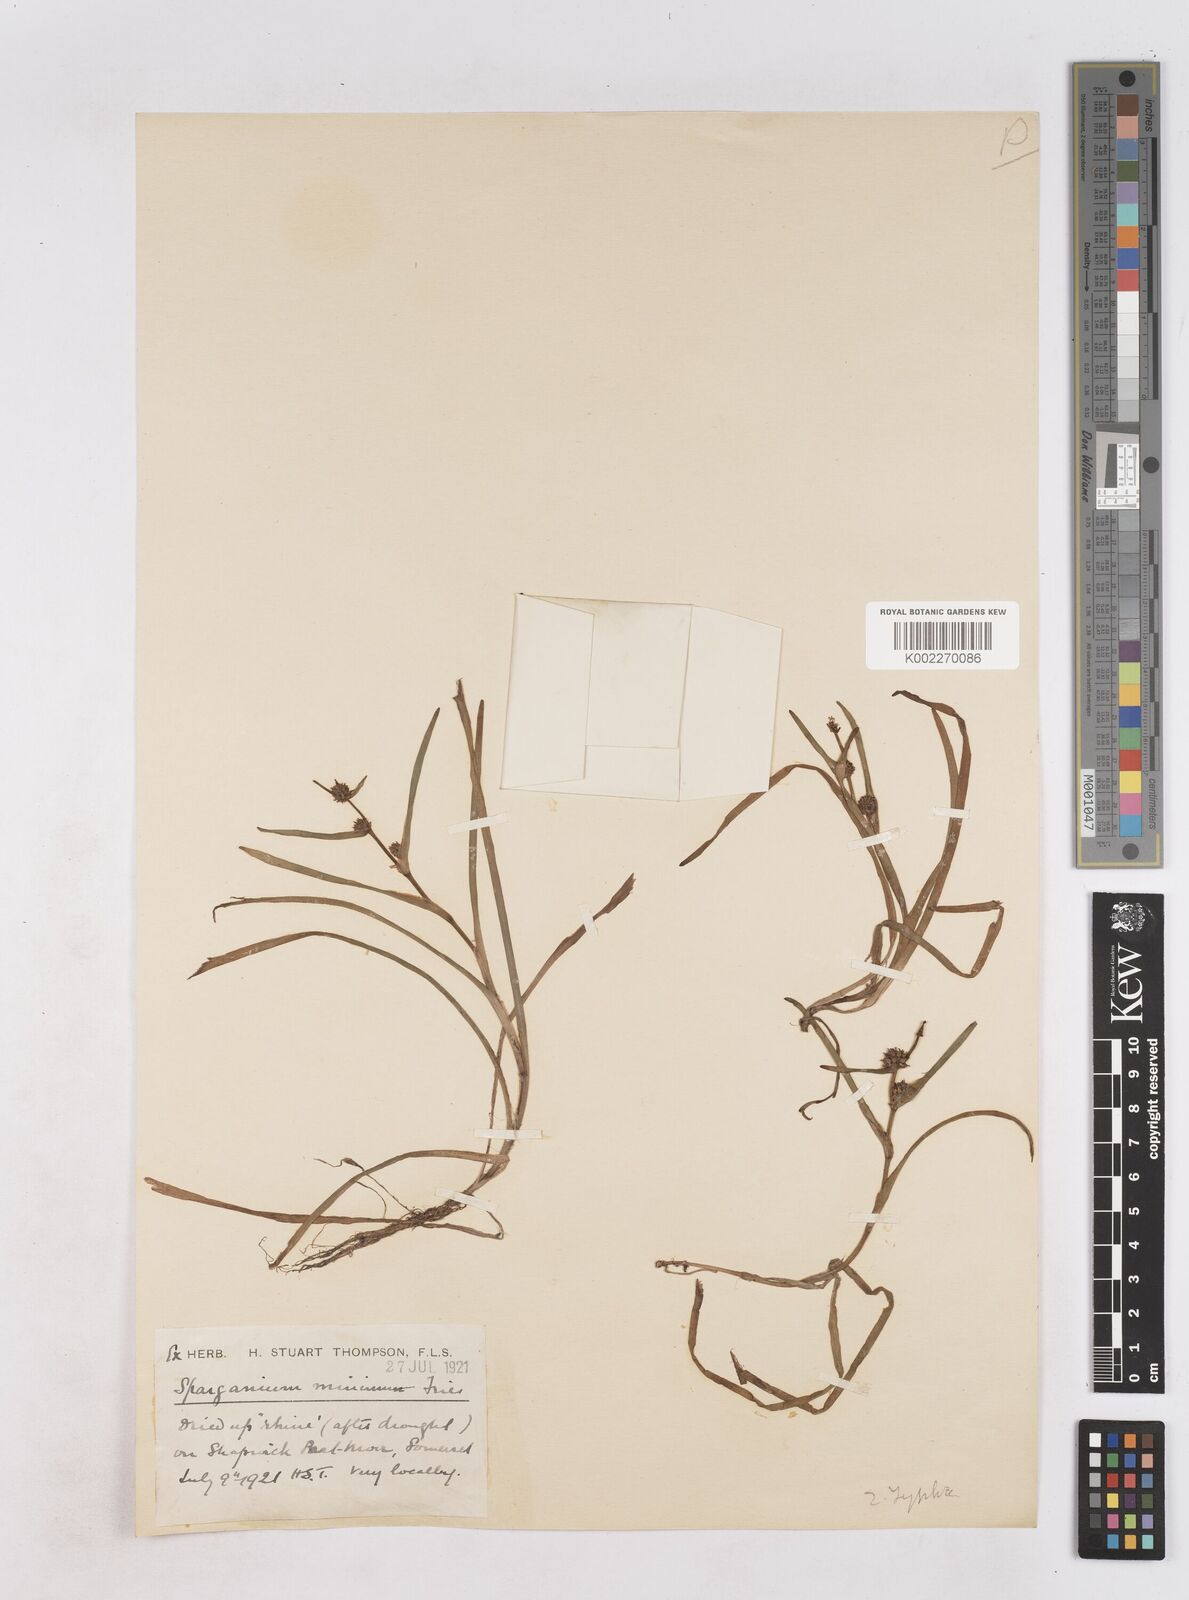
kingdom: Plantae
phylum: Tracheophyta
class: Liliopsida
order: Poales
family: Typhaceae
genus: Sparganium
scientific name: Sparganium natans
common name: Least bur-reed
